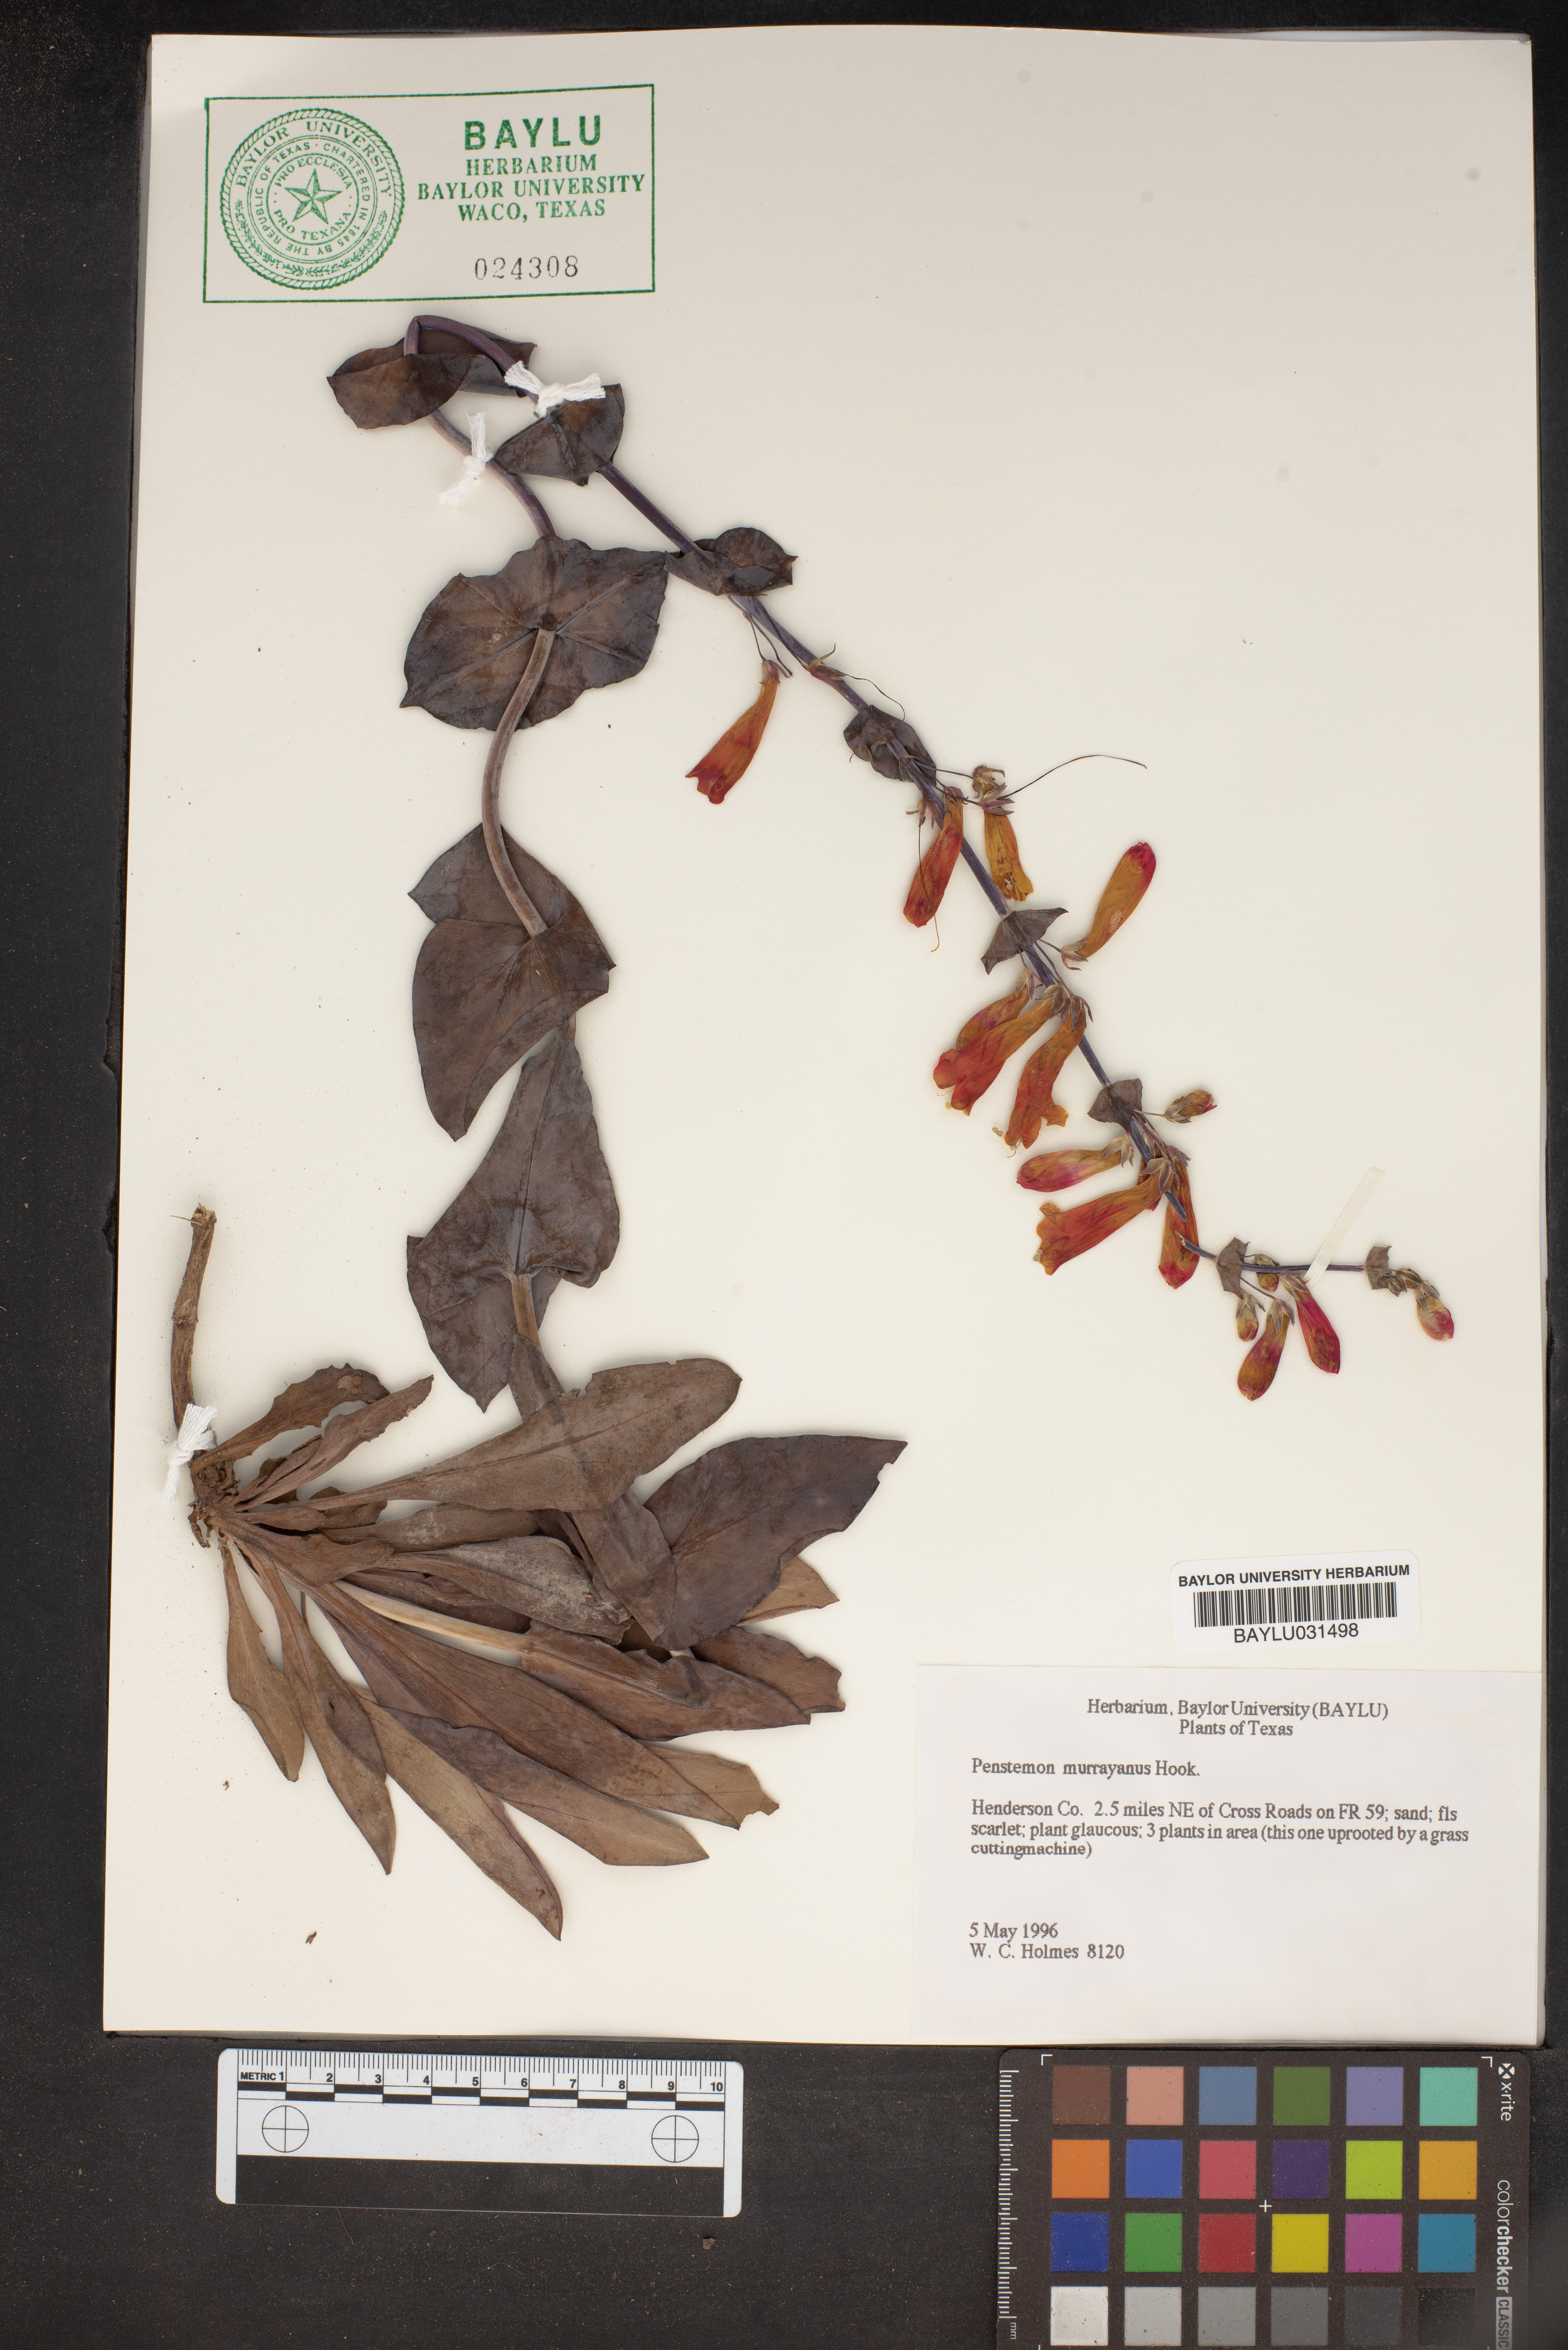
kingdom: Plantae
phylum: Tracheophyta
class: Magnoliopsida
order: Lamiales
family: Plantaginaceae
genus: Penstemon
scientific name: Penstemon murrayanus
